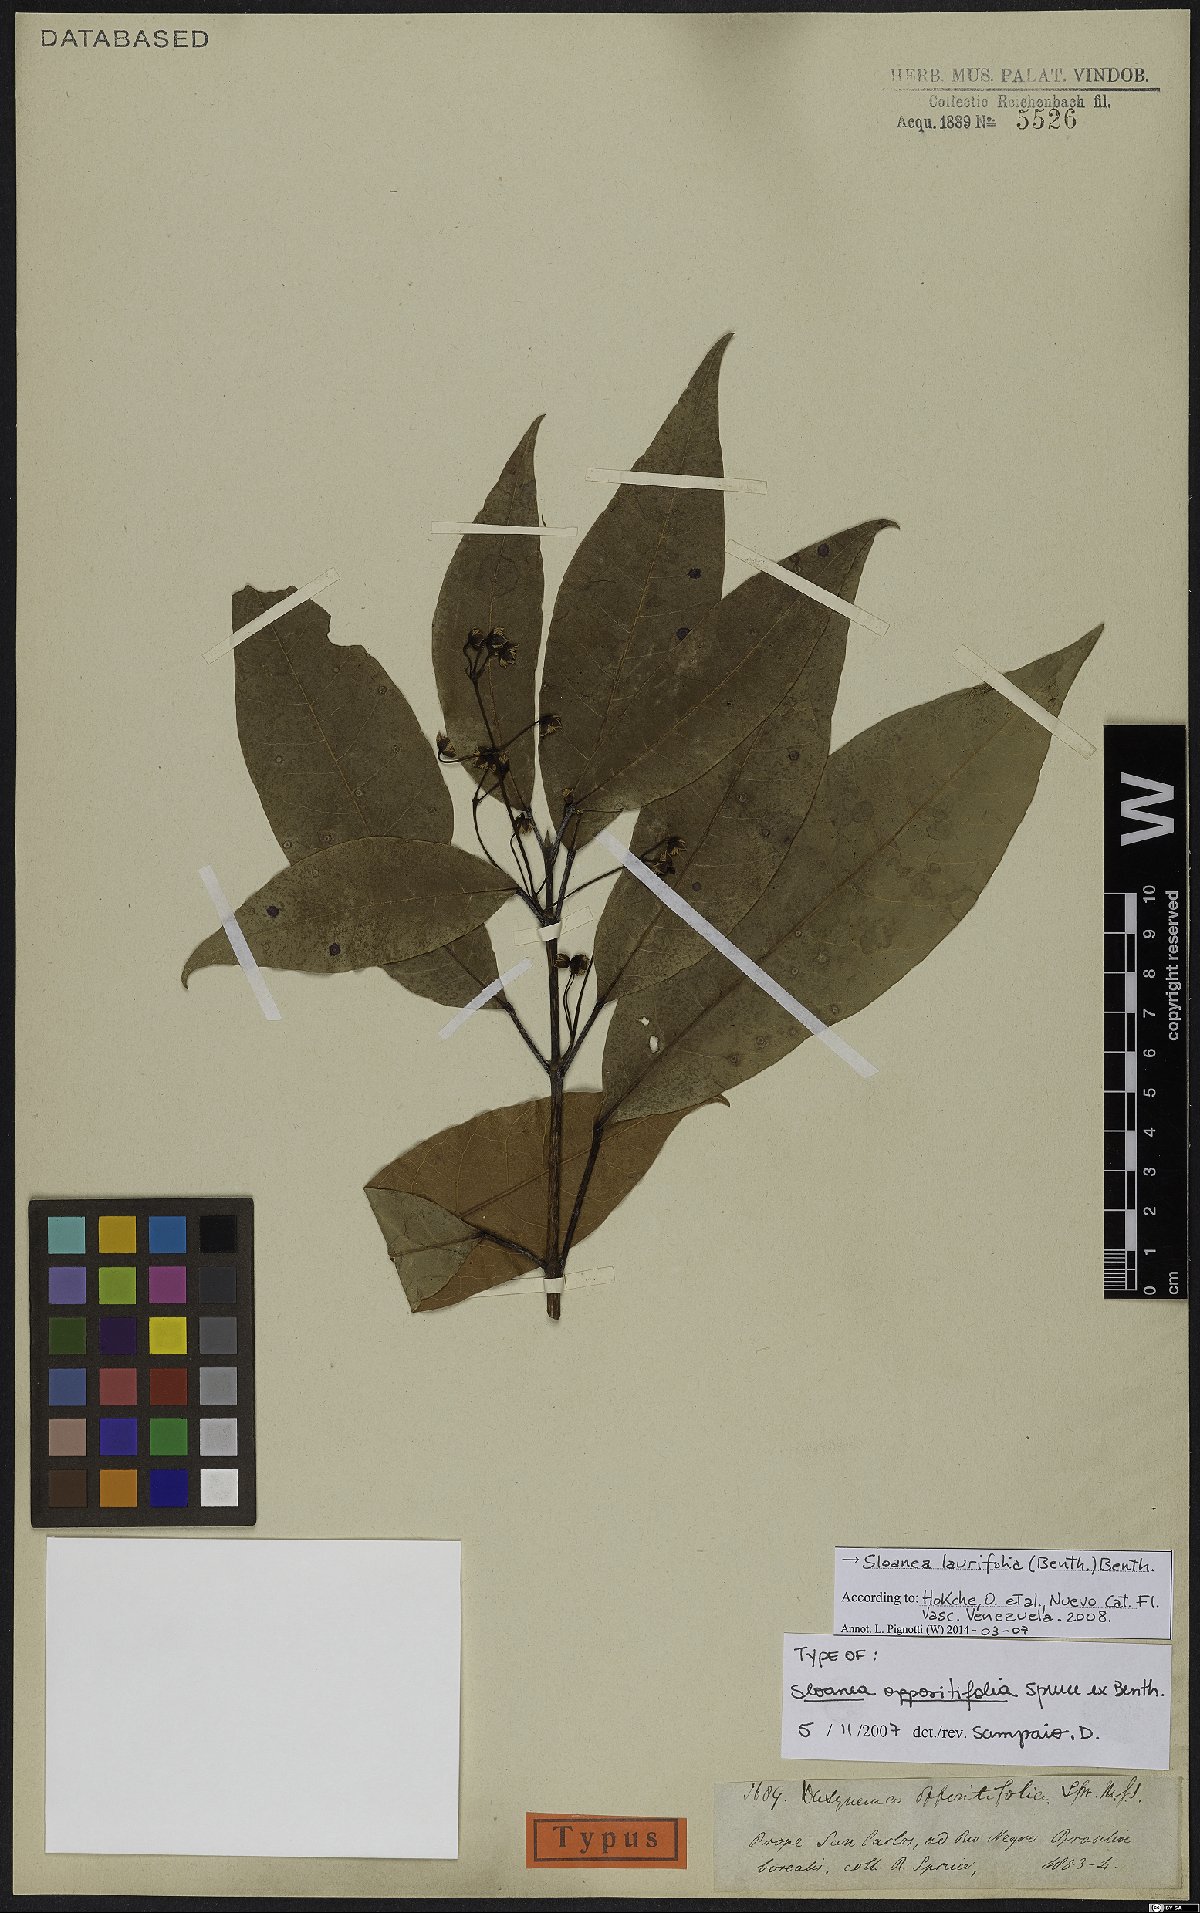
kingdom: Plantae
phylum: Tracheophyta
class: Magnoliopsida
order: Oxalidales
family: Elaeocarpaceae
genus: Sloanea
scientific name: Sloanea laurifolia
